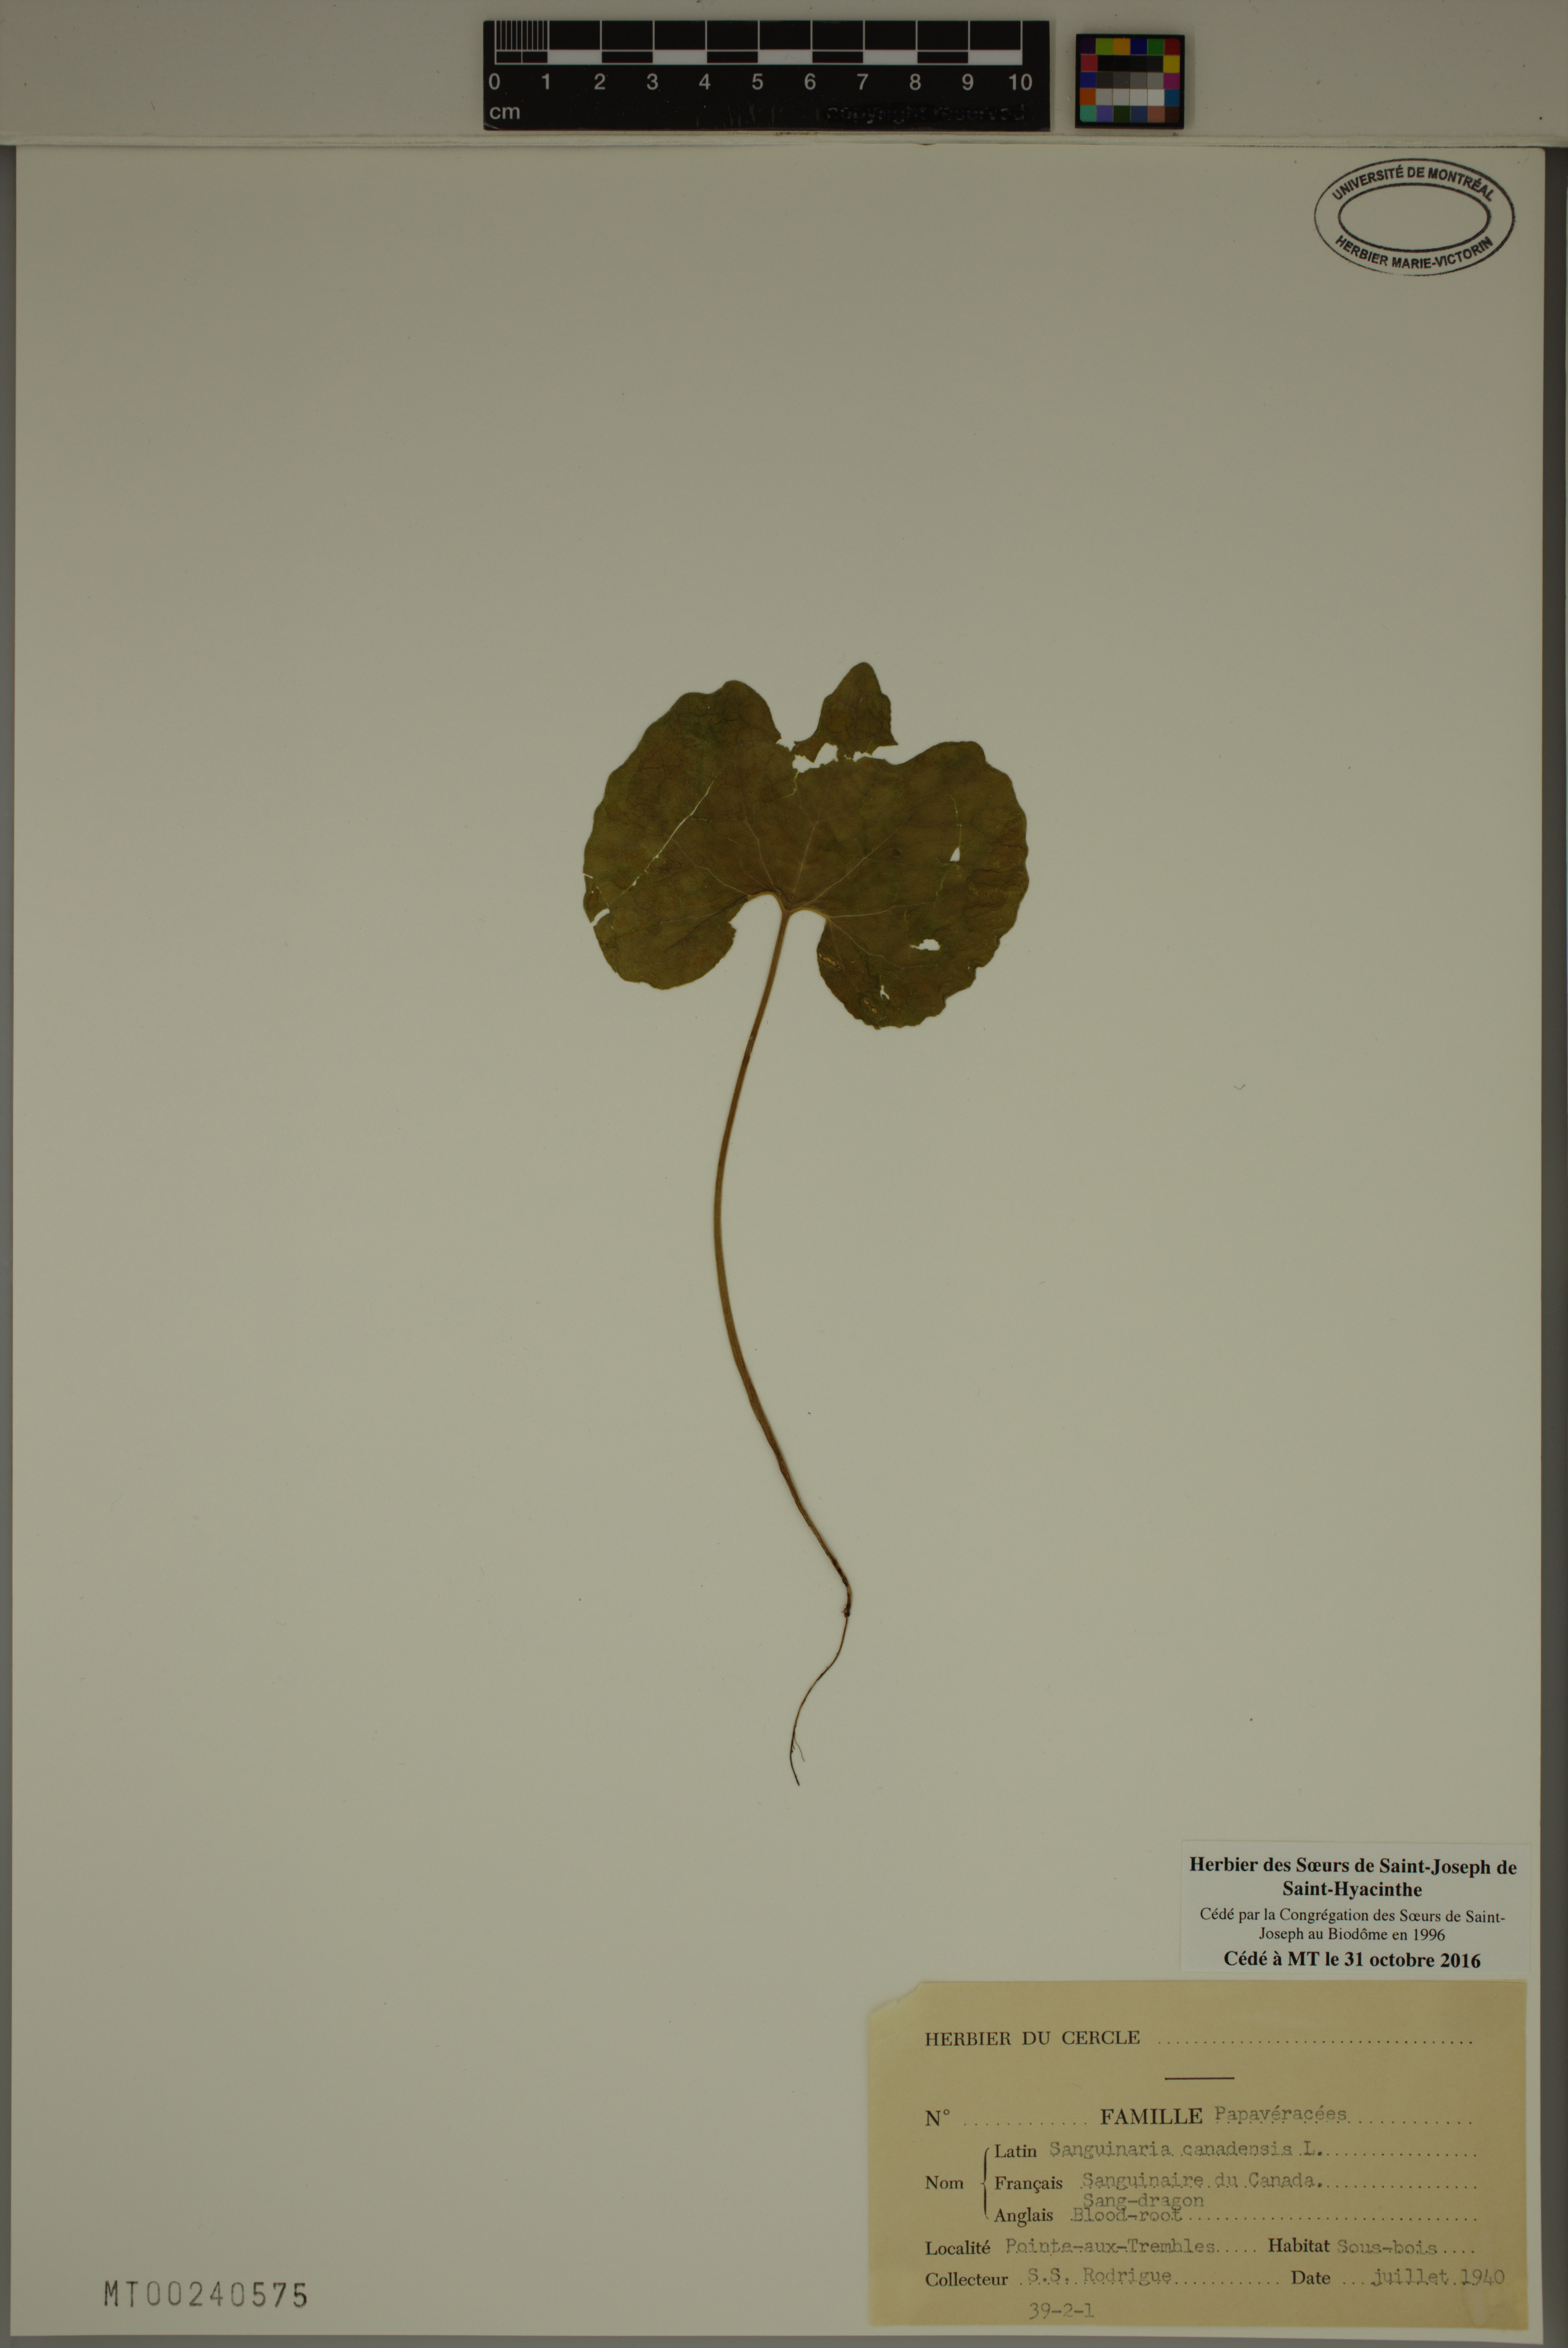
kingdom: Plantae
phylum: Tracheophyta
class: Magnoliopsida
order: Ranunculales
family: Papaveraceae
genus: Sanguinaria
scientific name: Sanguinaria canadensis
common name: Bloodroot
